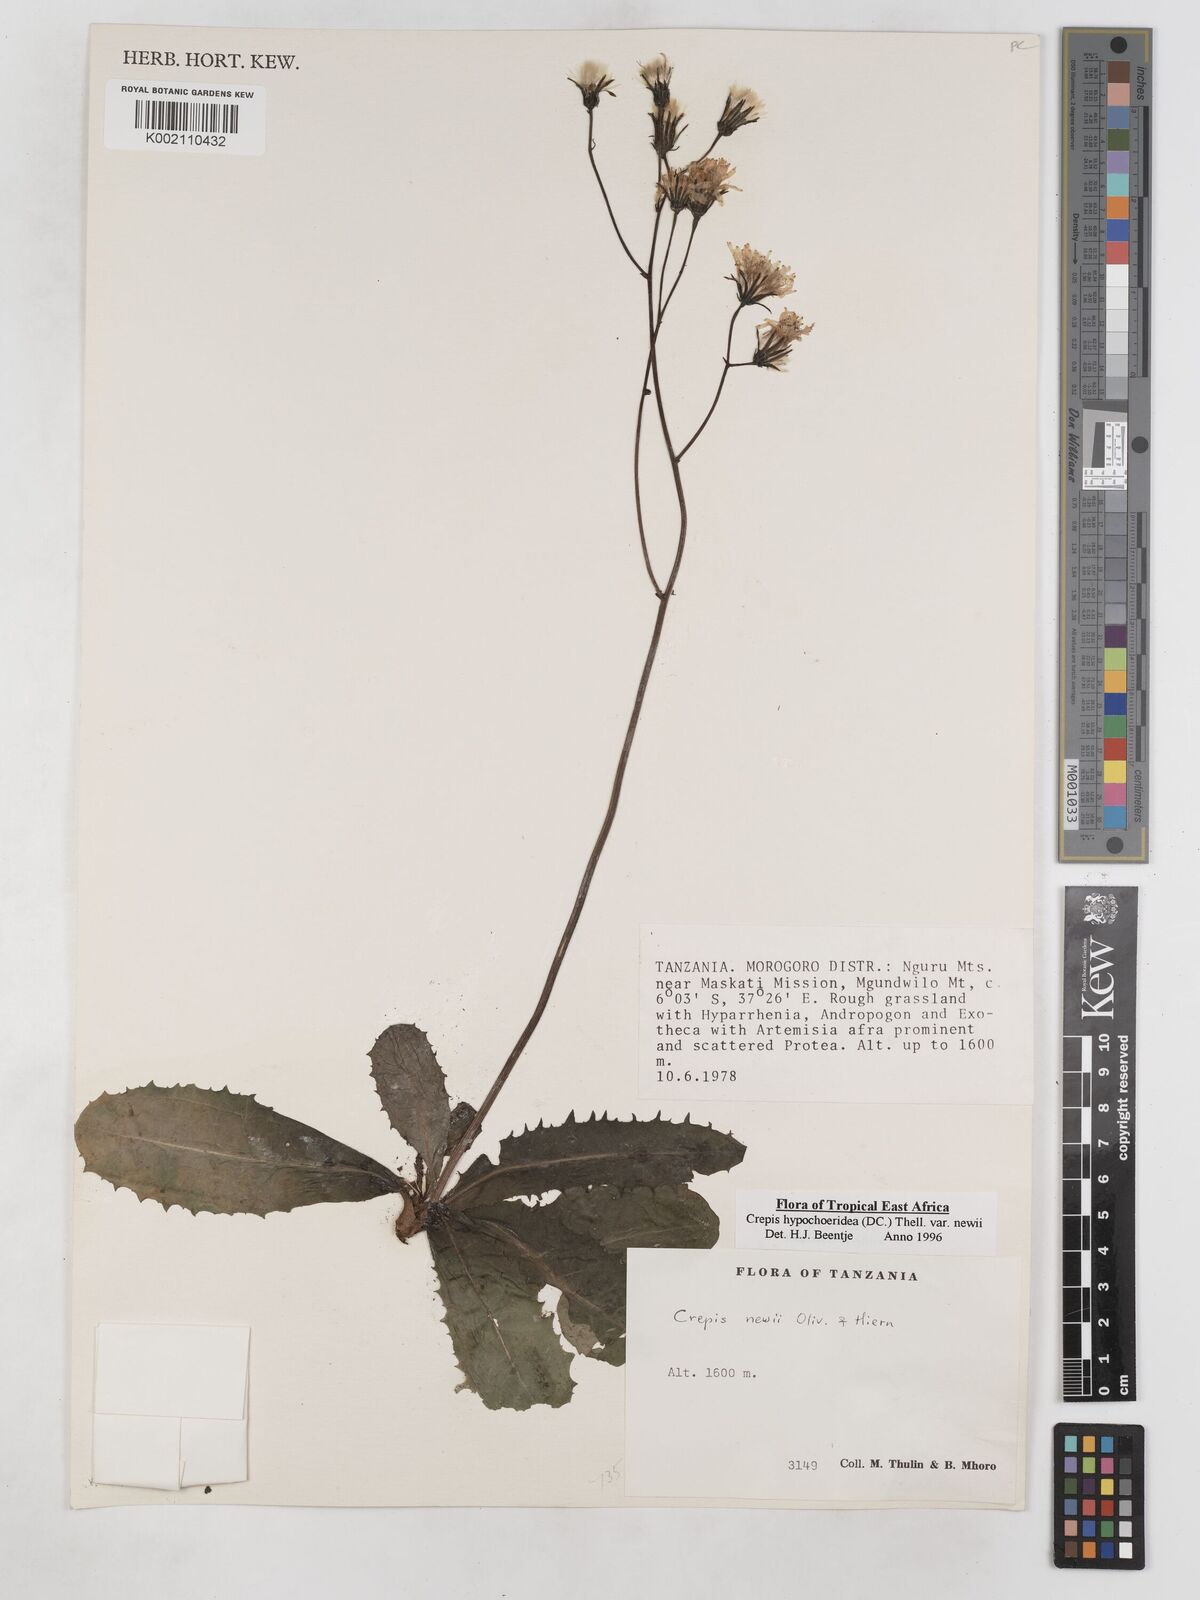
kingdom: Plantae
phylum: Tracheophyta
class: Magnoliopsida
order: Asterales
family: Asteraceae
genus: Crepis
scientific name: Crepis hypochoeridea
